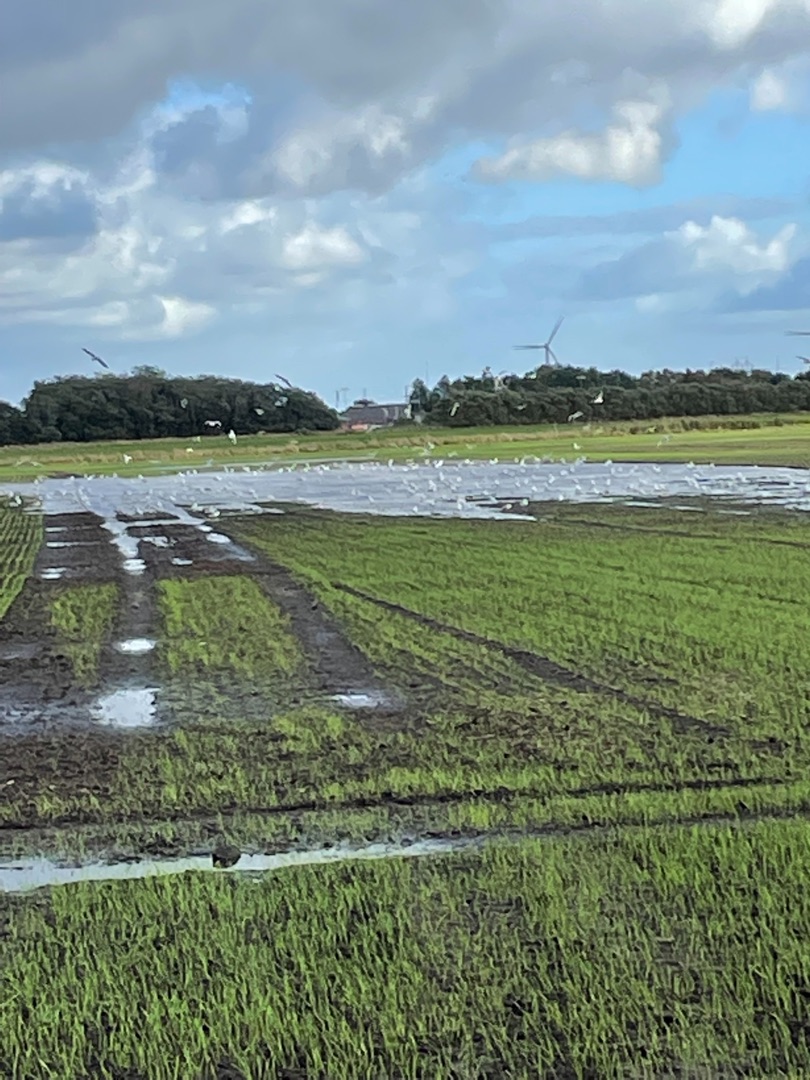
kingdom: Animalia
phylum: Chordata
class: Aves
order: Charadriiformes
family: Laridae
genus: Larus
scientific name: Larus canus
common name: Stormmåge
